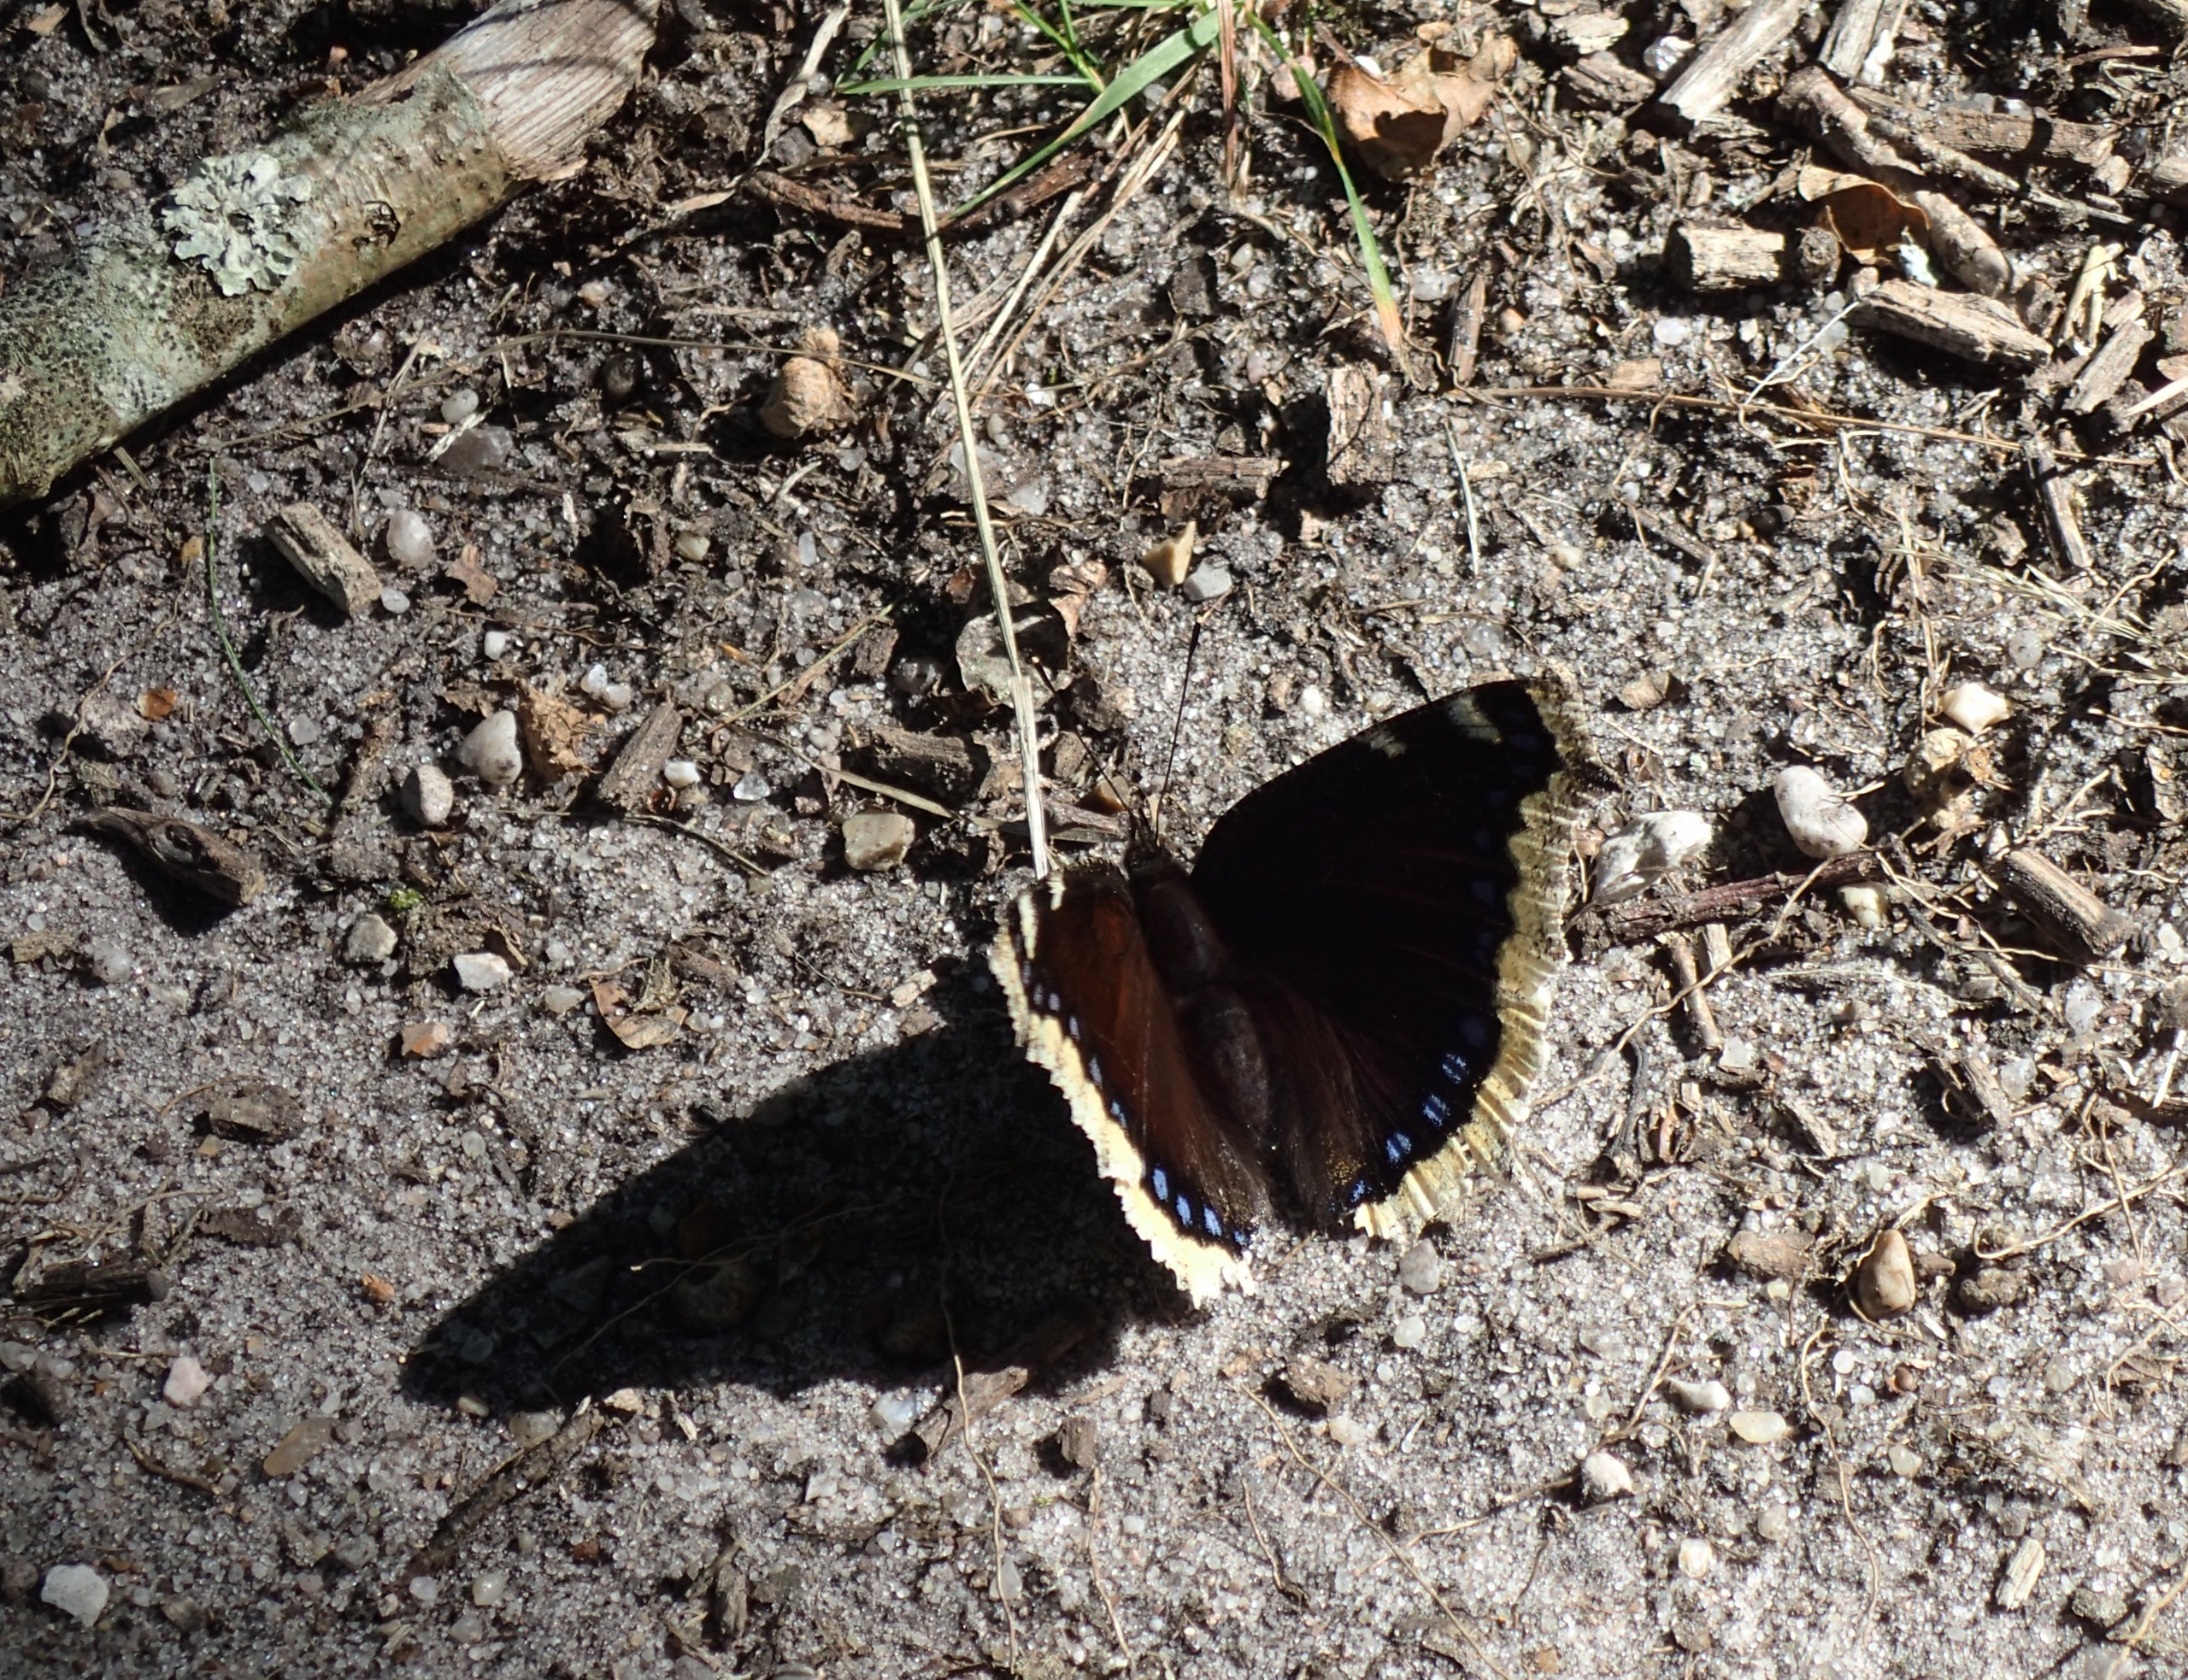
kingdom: Animalia
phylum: Arthropoda
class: Insecta
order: Lepidoptera
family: Nymphalidae
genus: Nymphalis
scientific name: Nymphalis antiopa
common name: Sørgekåbe
